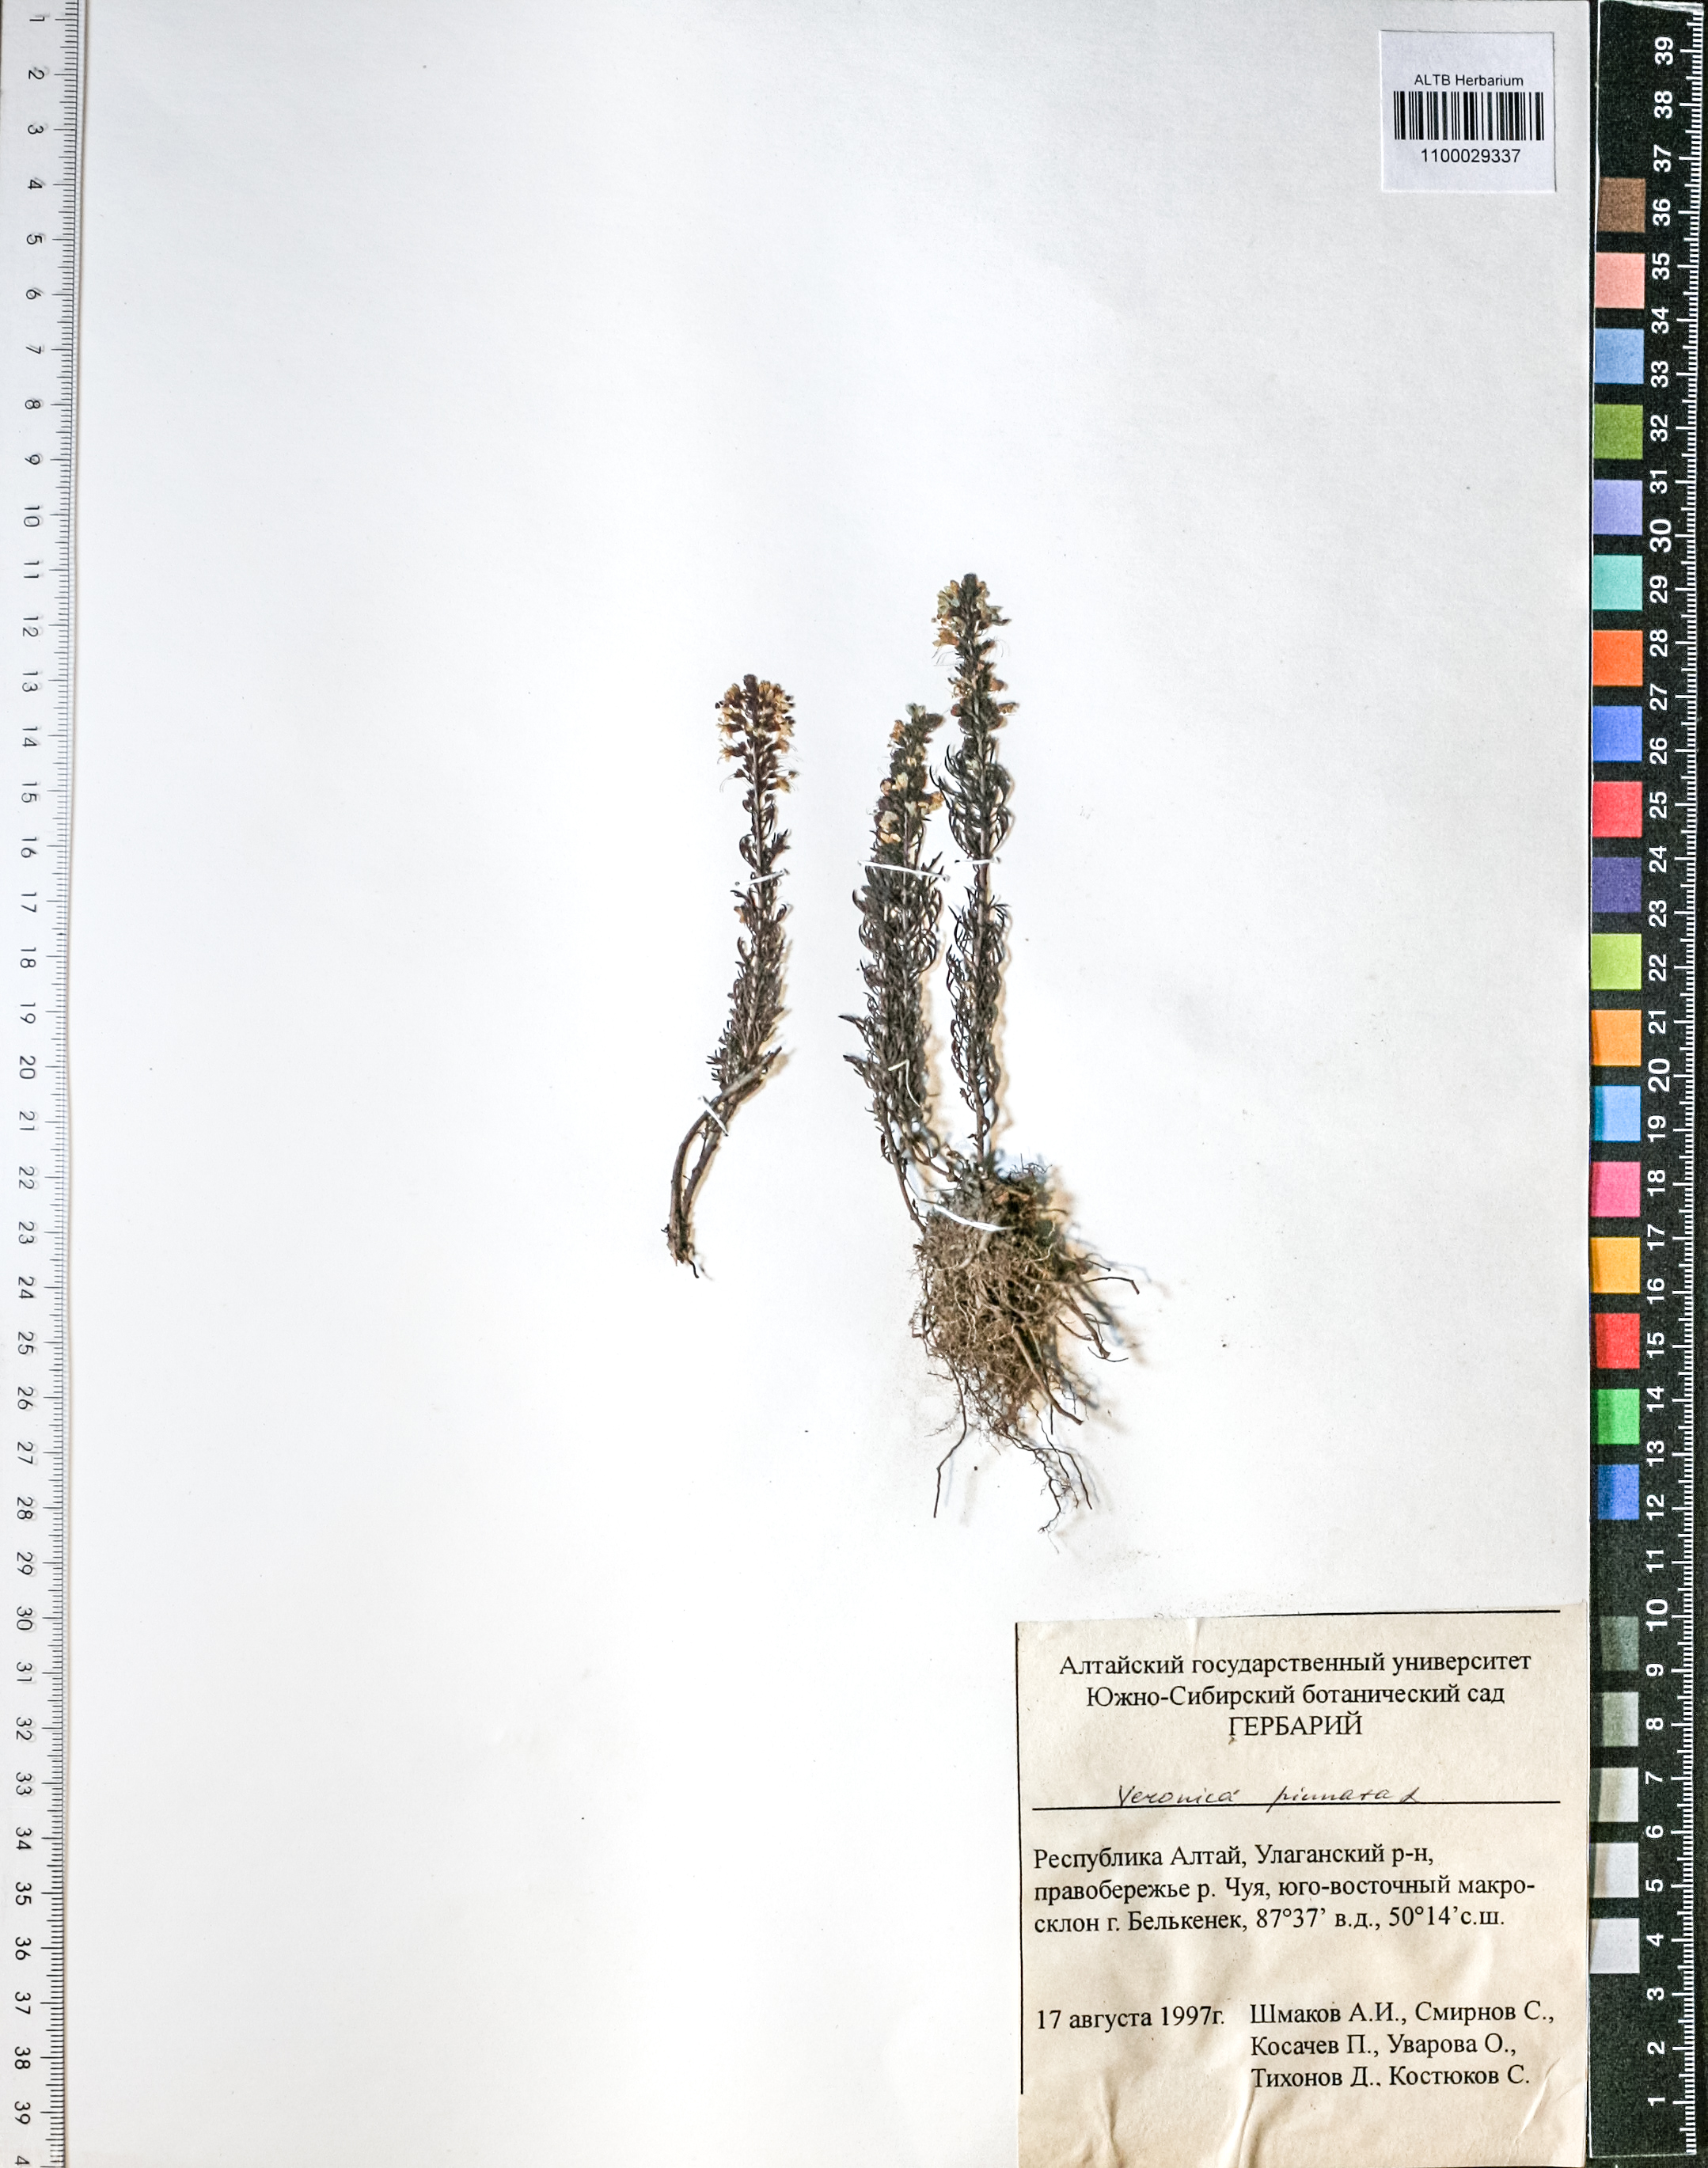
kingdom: Plantae
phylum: Tracheophyta
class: Magnoliopsida
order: Lamiales
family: Plantaginaceae
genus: Veronica
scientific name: Veronica pinnata
